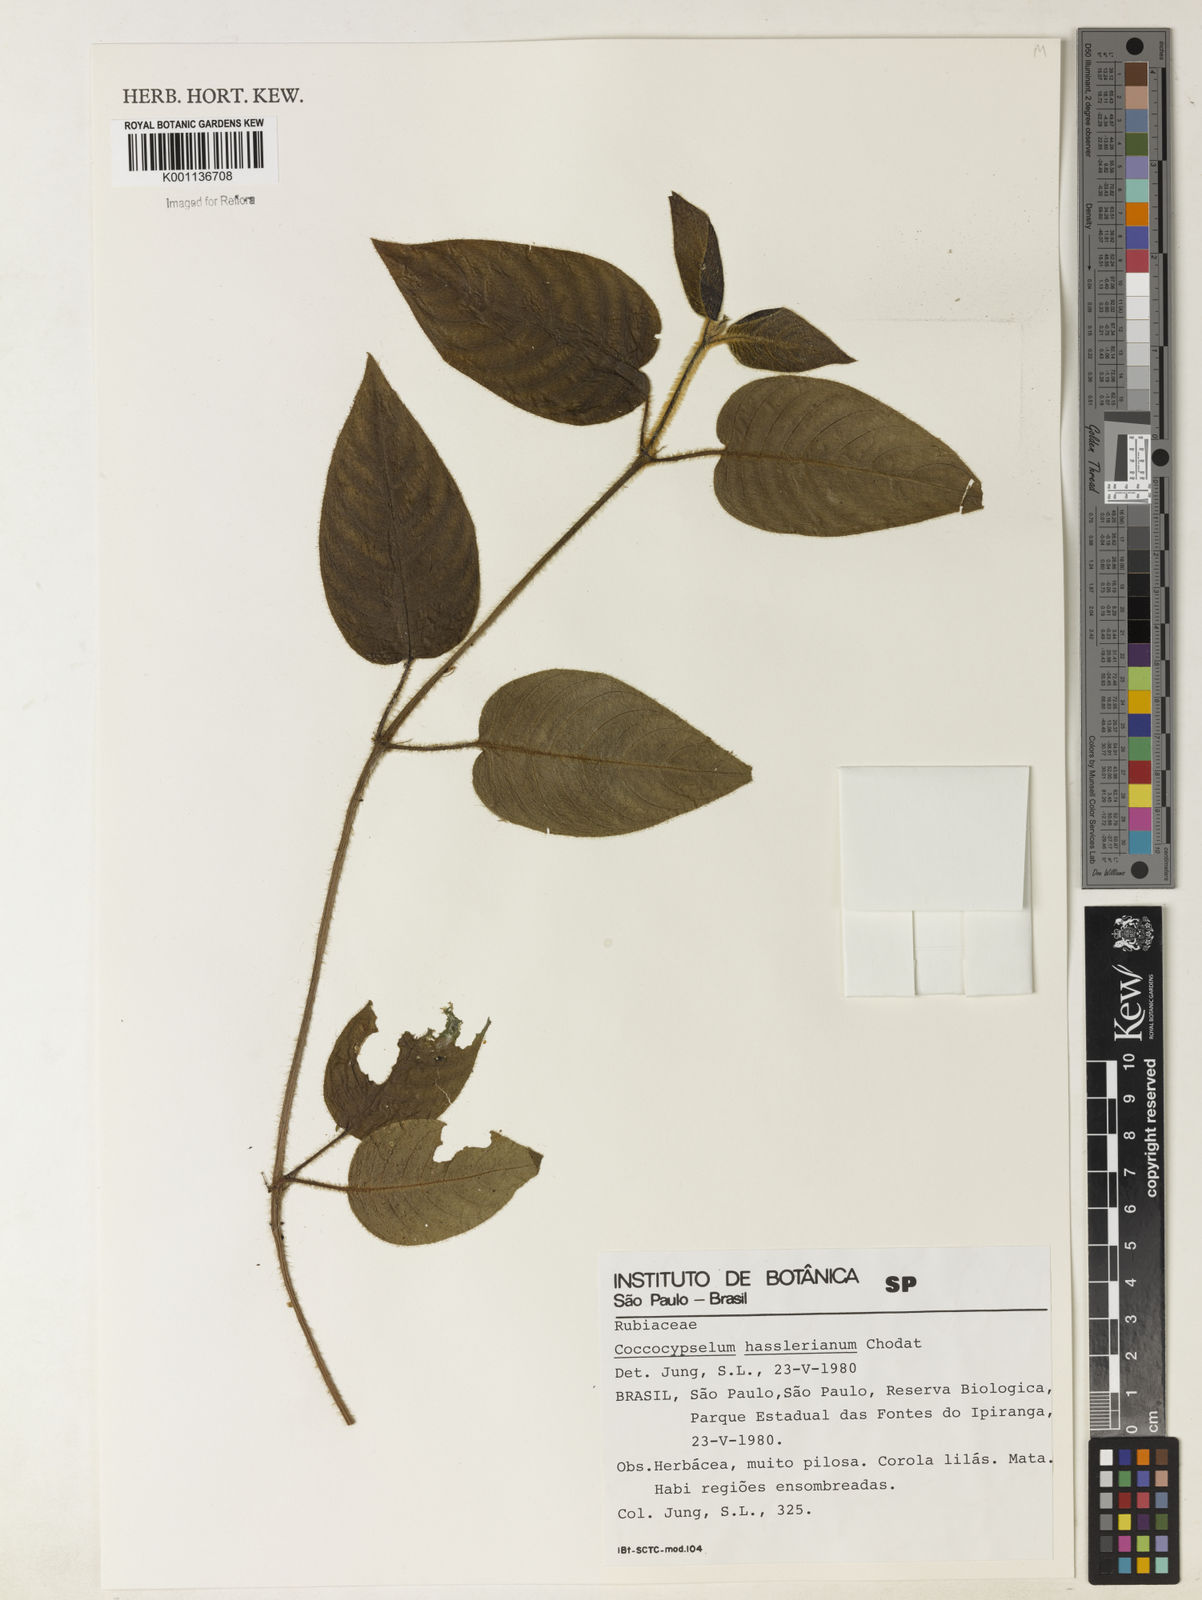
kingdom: Plantae
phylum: Tracheophyta
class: Magnoliopsida
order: Gentianales
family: Rubiaceae
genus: Coccocypselum
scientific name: Coccocypselum hasslerianum
